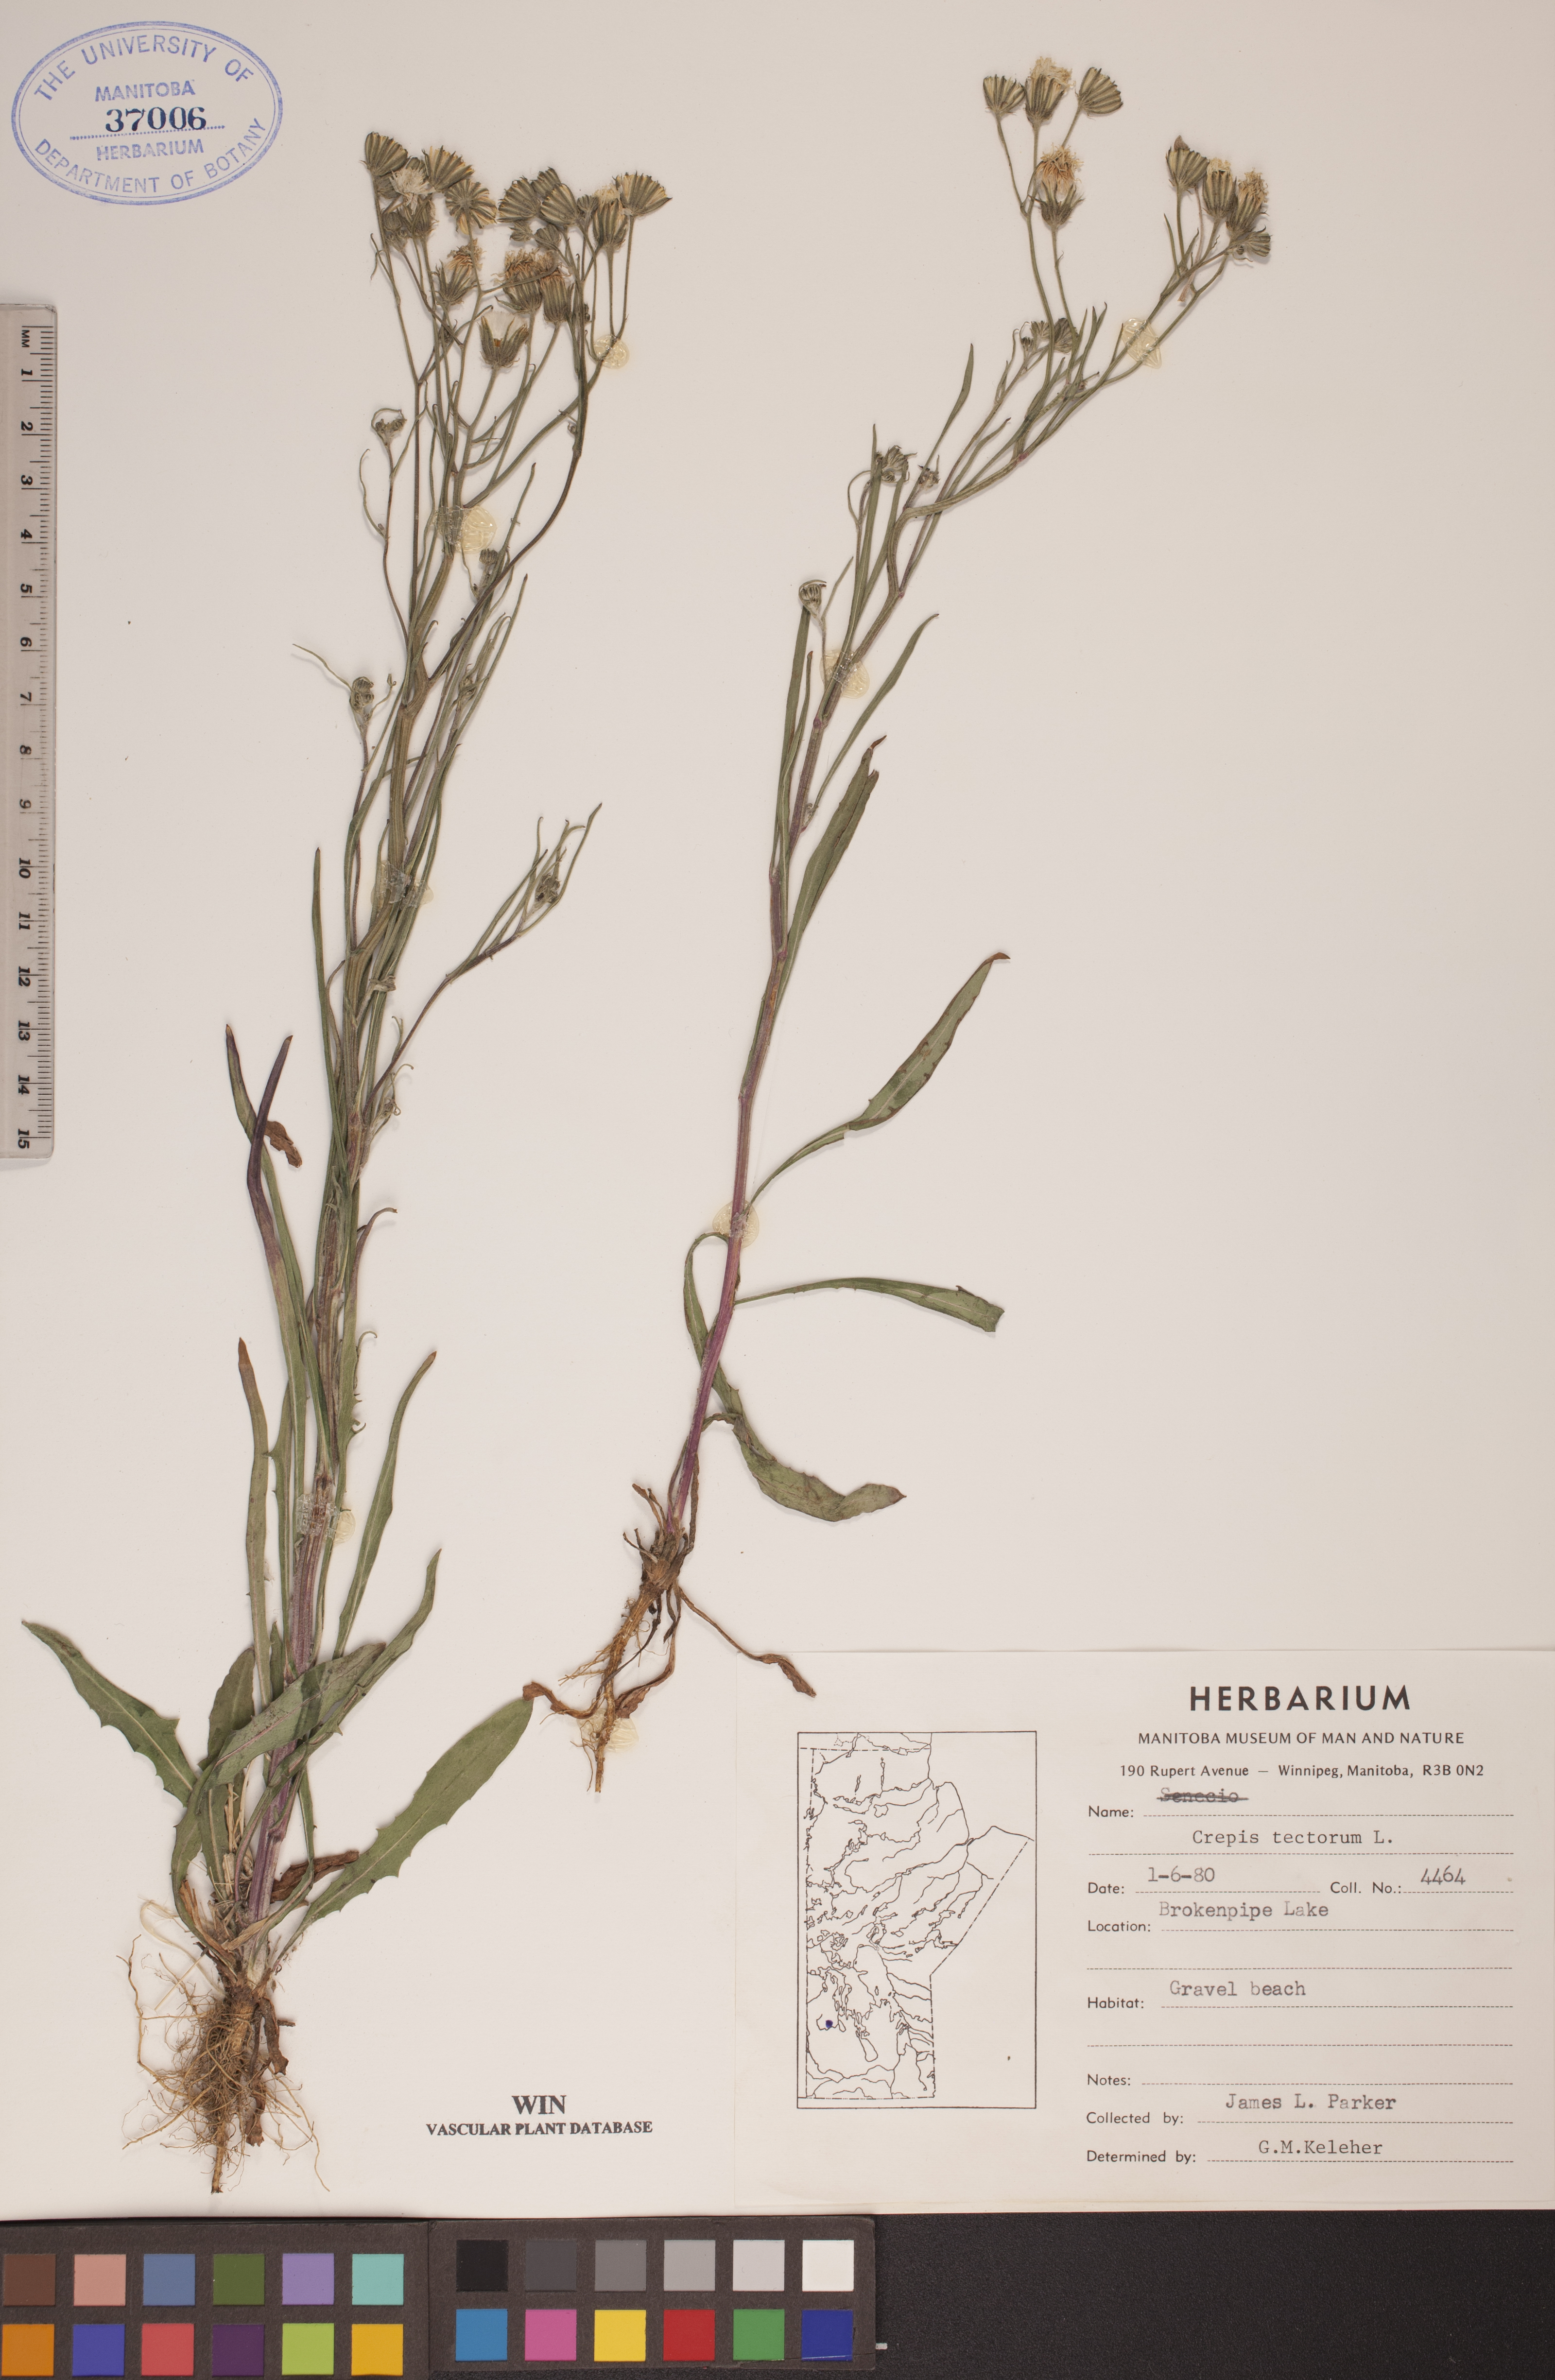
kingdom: Plantae
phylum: Tracheophyta
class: Magnoliopsida
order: Asterales
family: Asteraceae
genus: Crepis
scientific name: Crepis tectorum
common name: Narrow-leaved hawk's-beard
